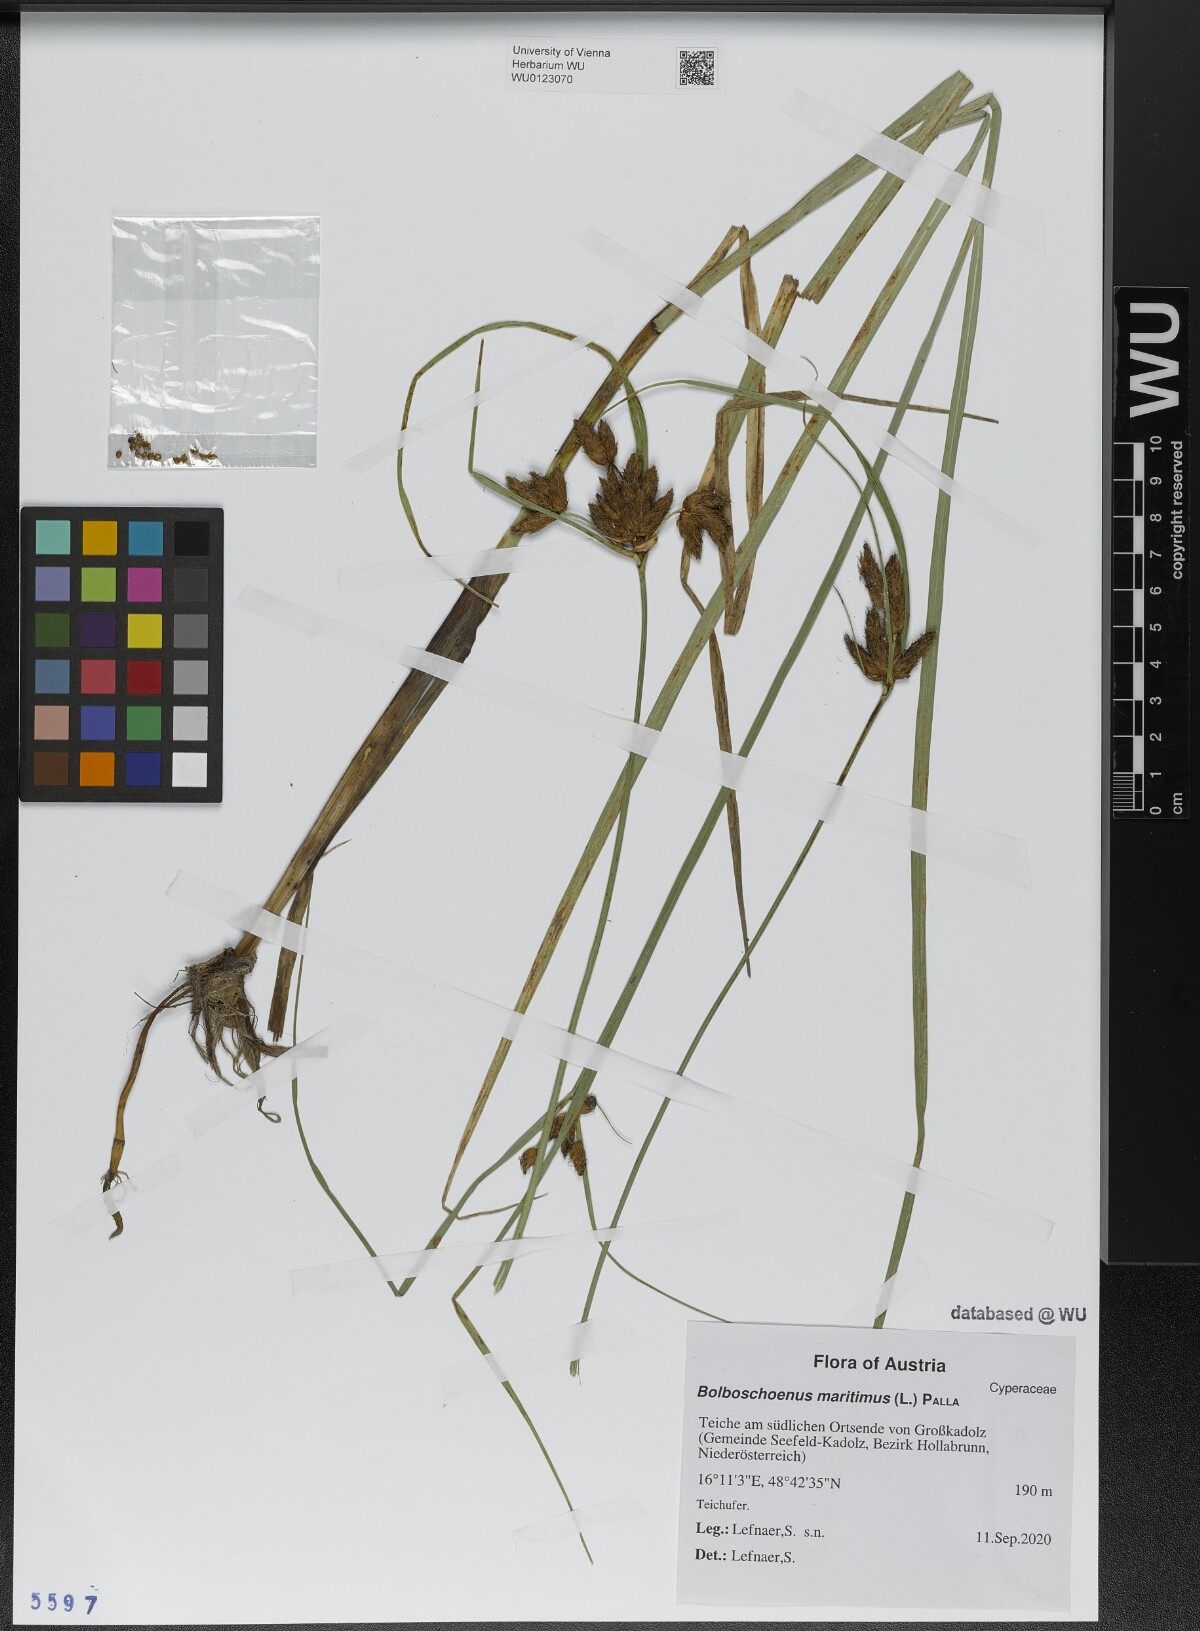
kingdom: Plantae
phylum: Tracheophyta
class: Liliopsida
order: Poales
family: Cyperaceae
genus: Bolboschoenus
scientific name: Bolboschoenus maritimus
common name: Sea club-rush
